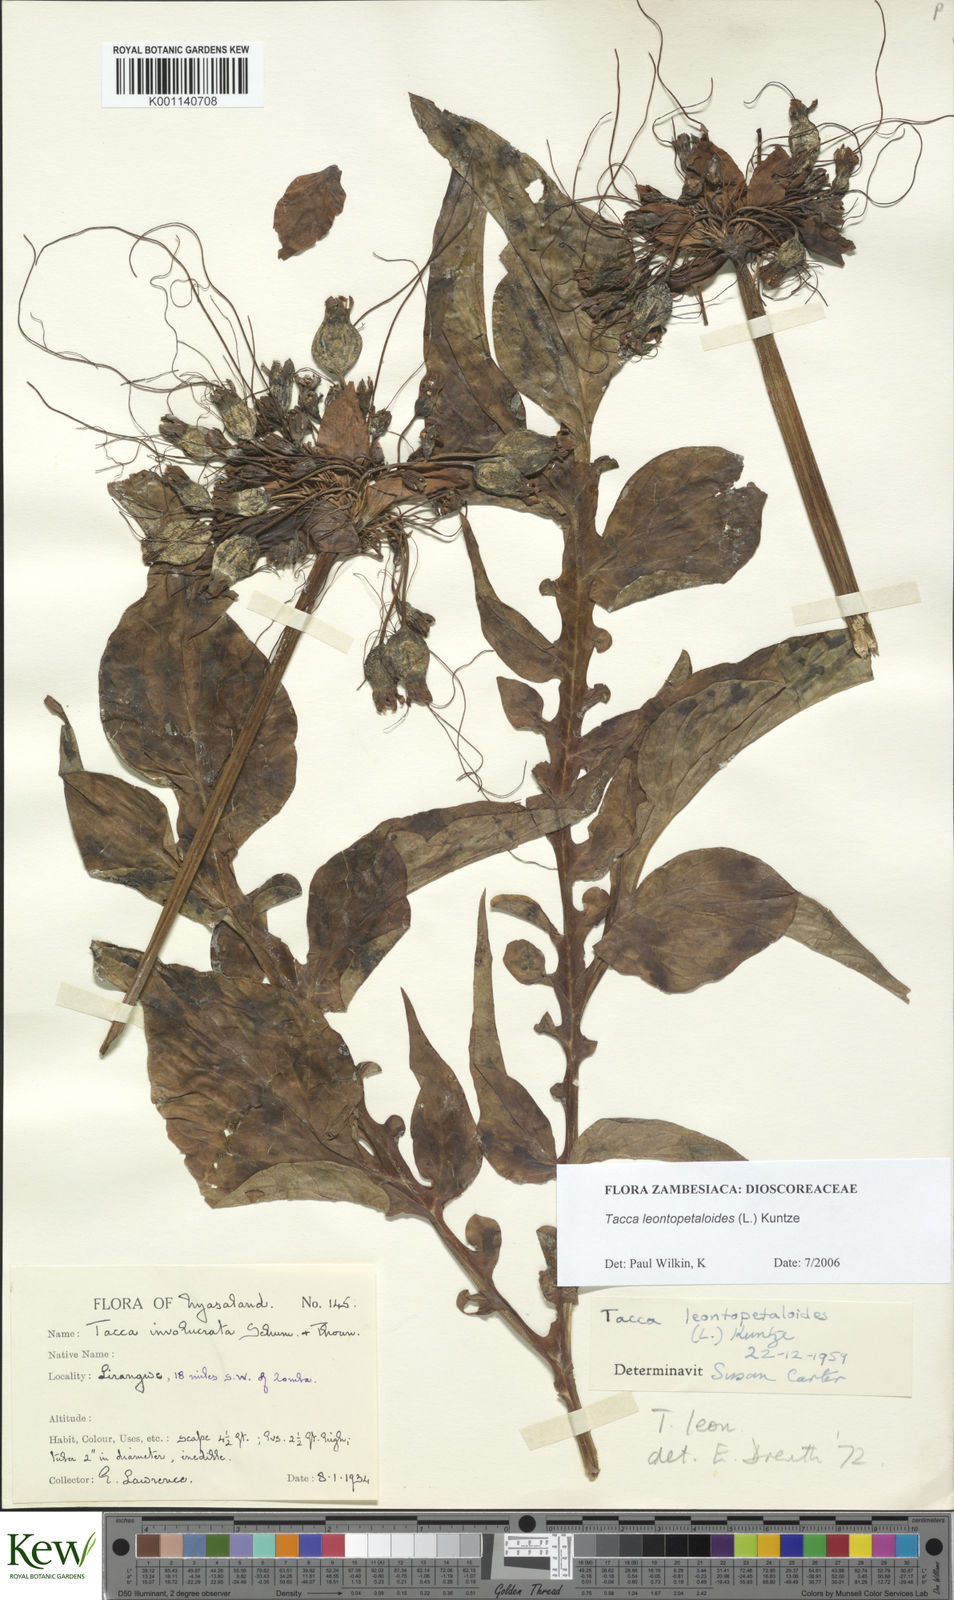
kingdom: Plantae
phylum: Tracheophyta
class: Liliopsida
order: Dioscoreales
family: Dioscoreaceae
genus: Tacca
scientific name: Tacca leontopetaloides
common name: Arrowroot
